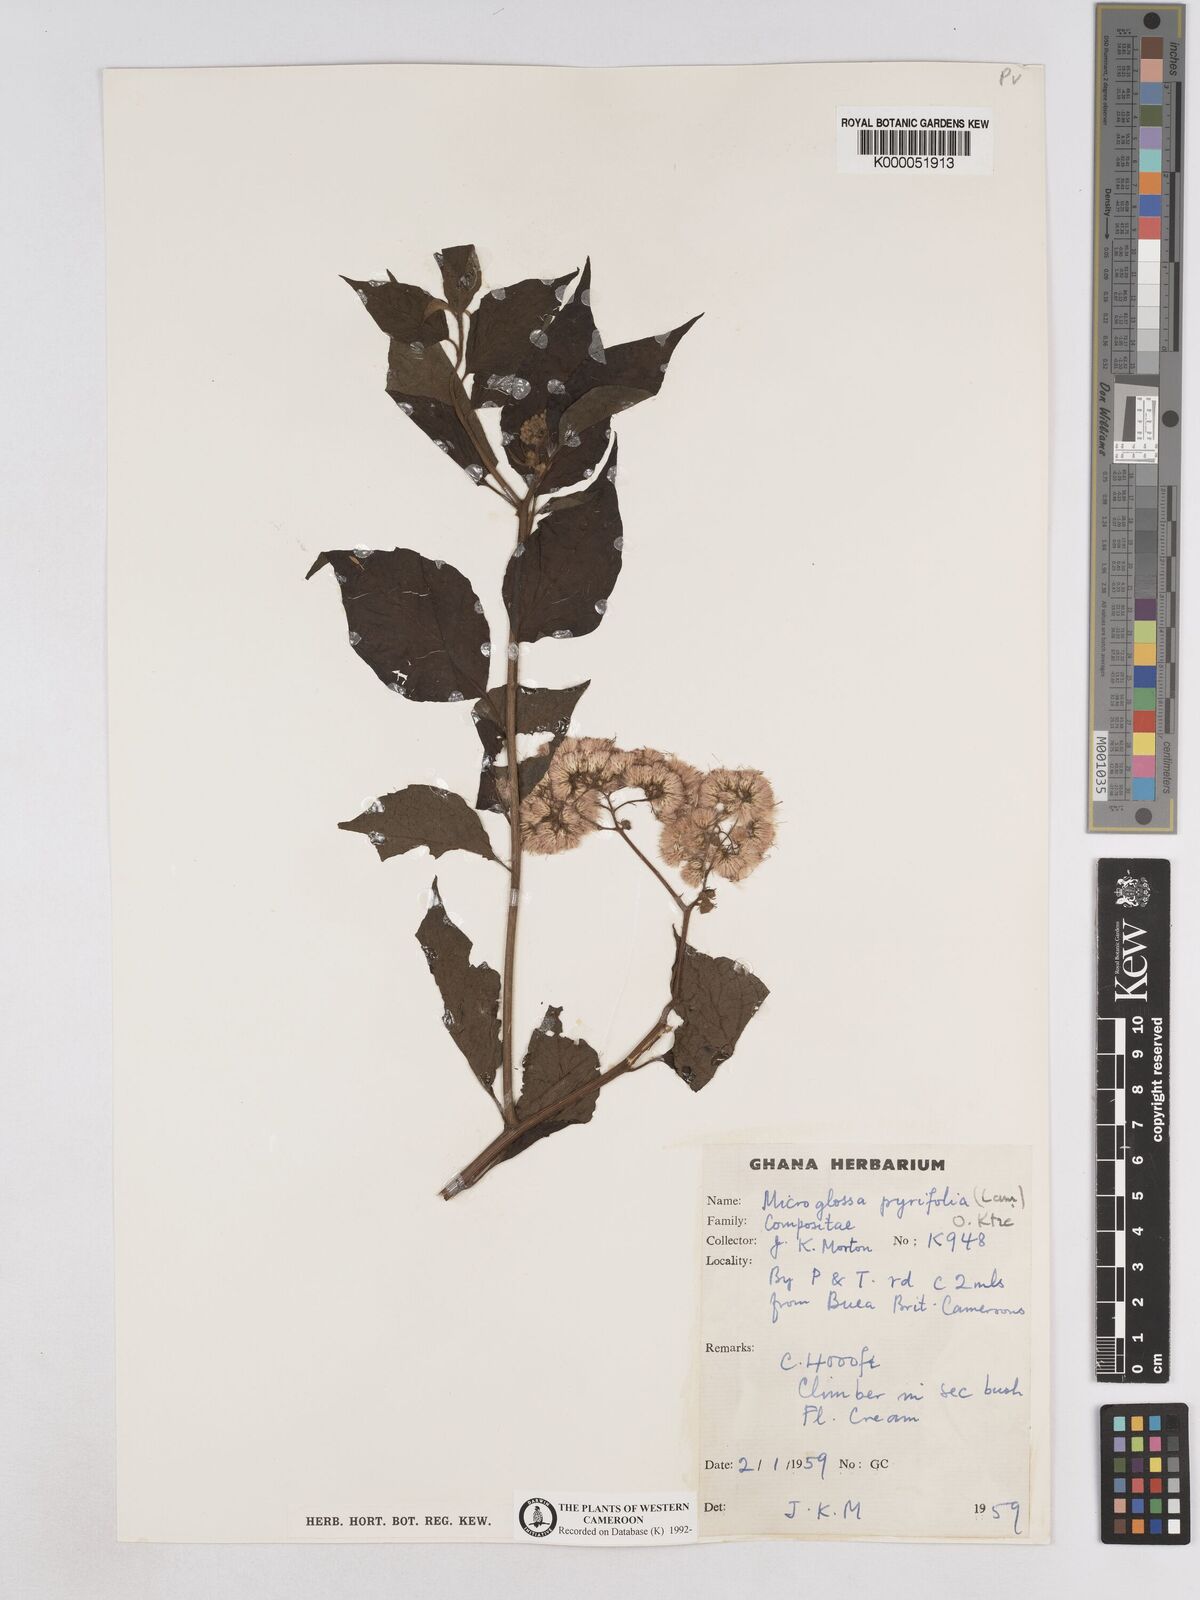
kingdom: Plantae
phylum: Tracheophyta
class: Magnoliopsida
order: Asterales
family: Asteraceae
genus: Microglossa
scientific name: Microglossa pyrifolia
